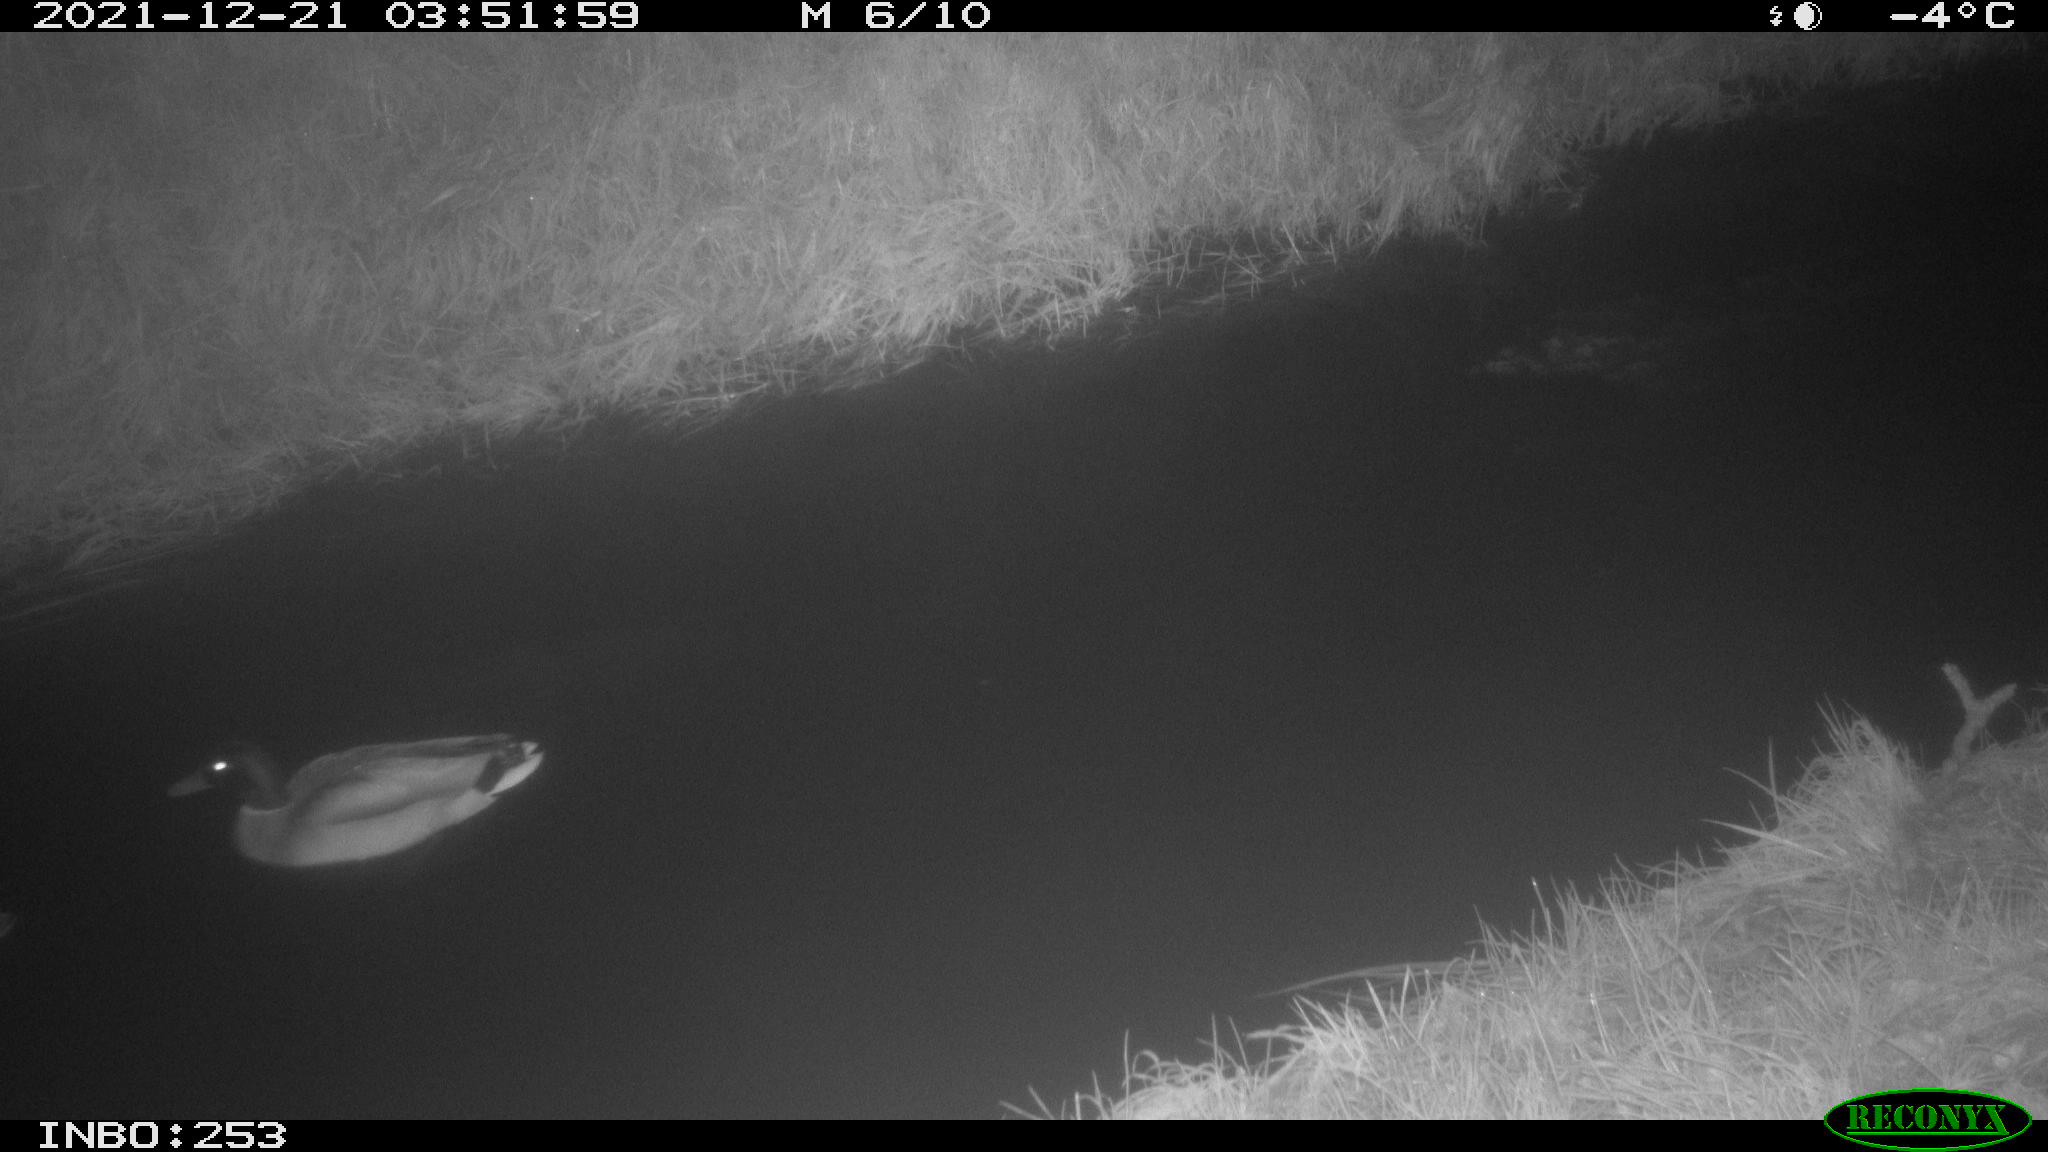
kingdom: Animalia
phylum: Chordata
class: Aves
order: Anseriformes
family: Anatidae
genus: Anas
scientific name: Anas
